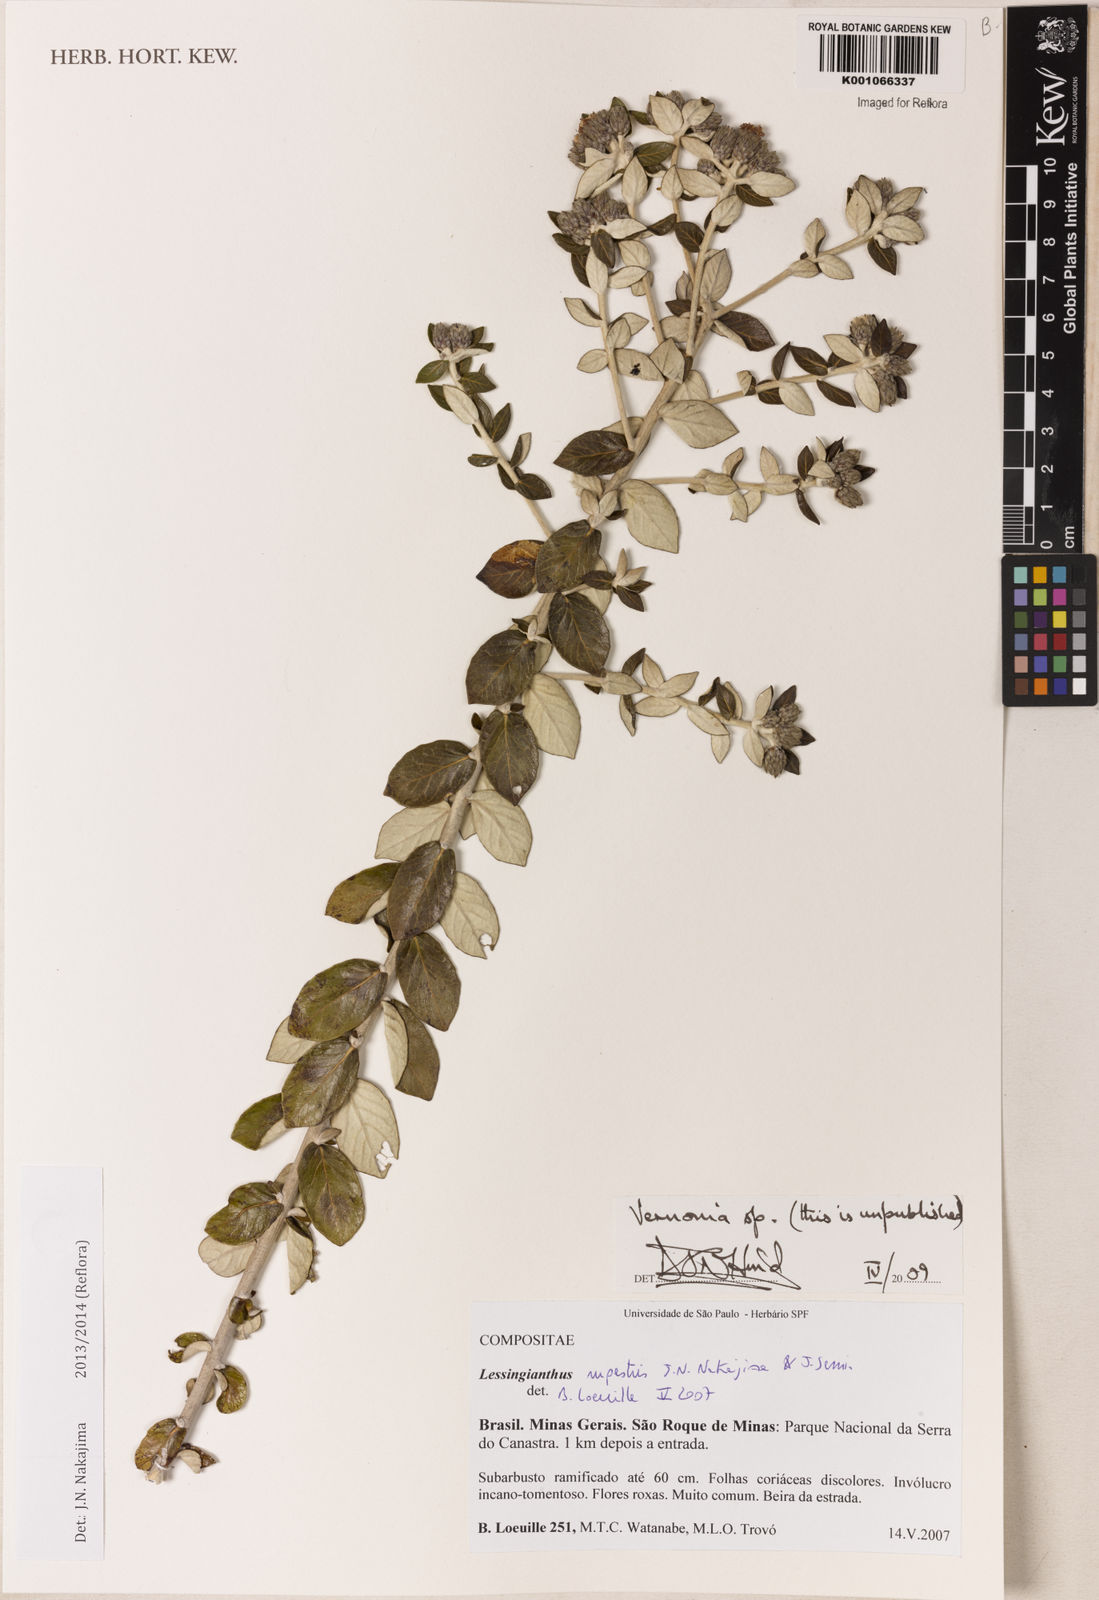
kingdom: Plantae
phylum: Tracheophyta
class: Magnoliopsida
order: Asterales
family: Asteraceae
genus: Vernonia
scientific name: Vernonia
